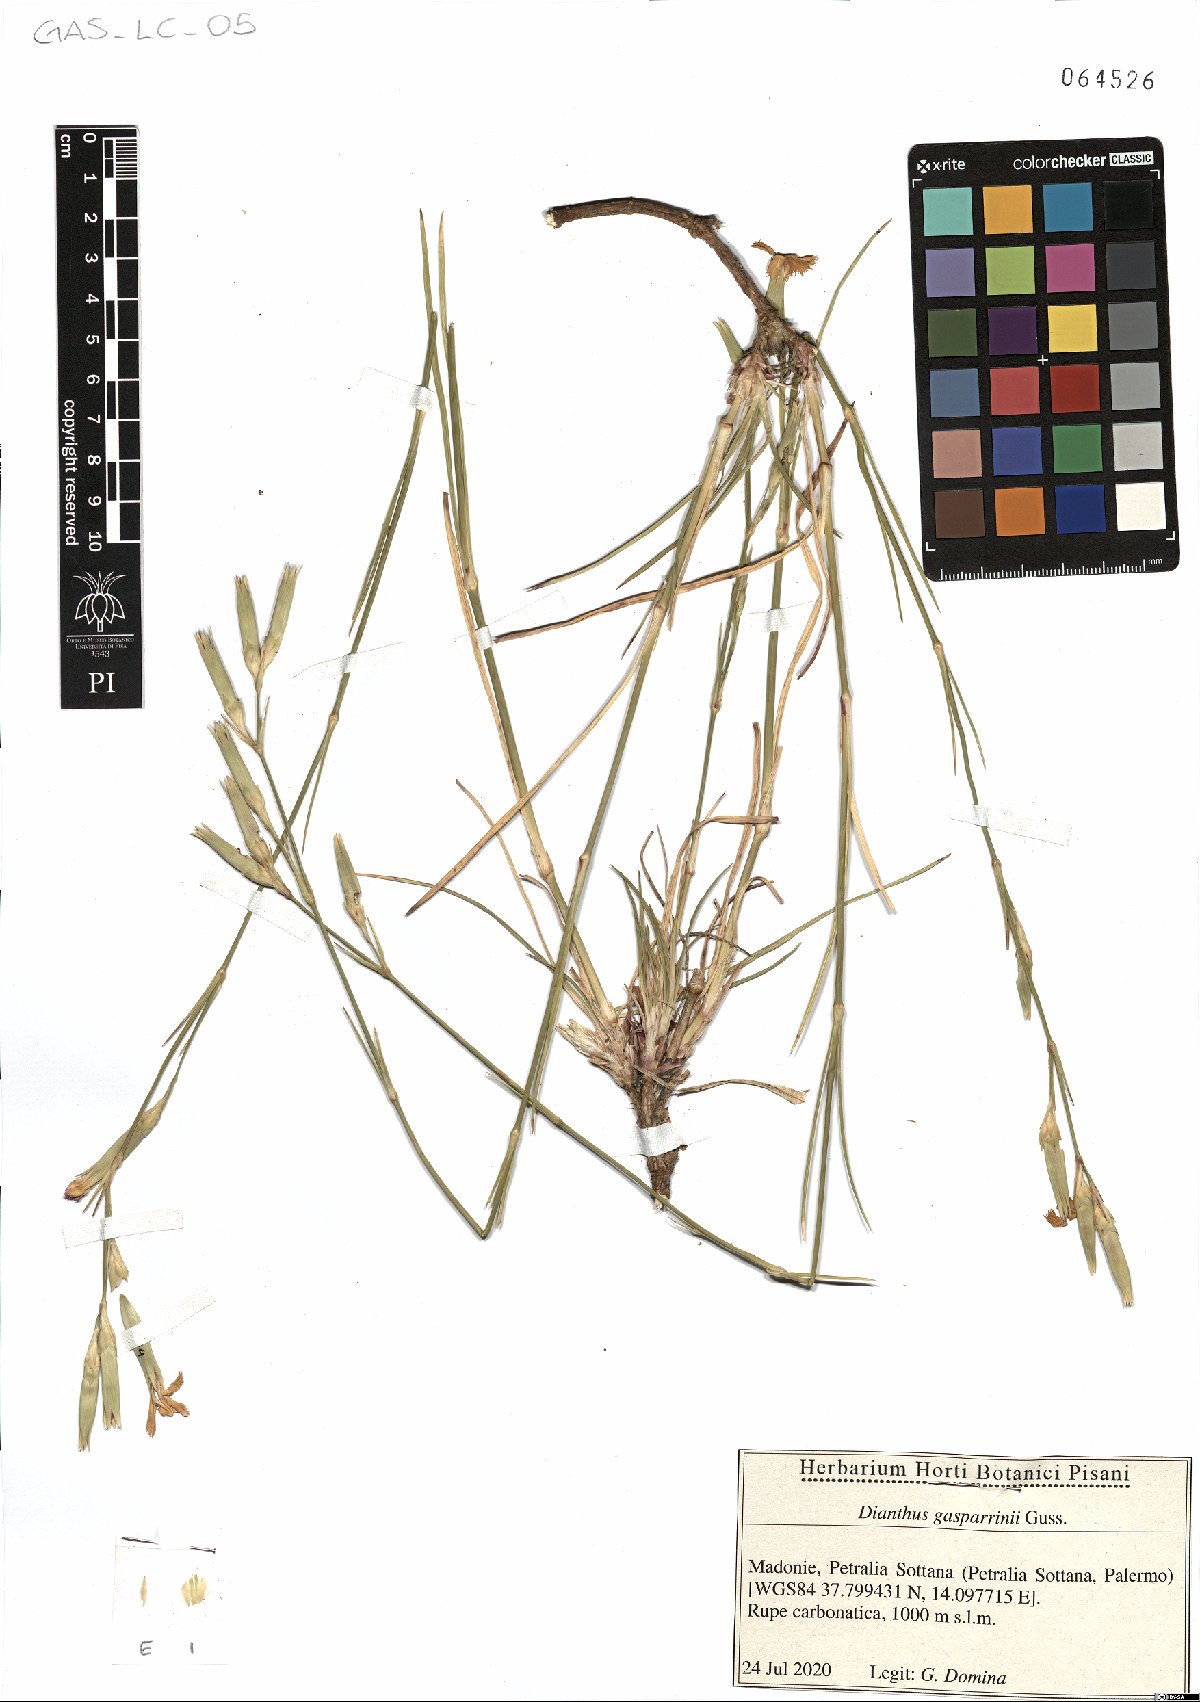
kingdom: Plantae
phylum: Tracheophyta
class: Magnoliopsida
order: Caryophyllales
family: Caryophyllaceae
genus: Dianthus
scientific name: Dianthus gasparrinii
